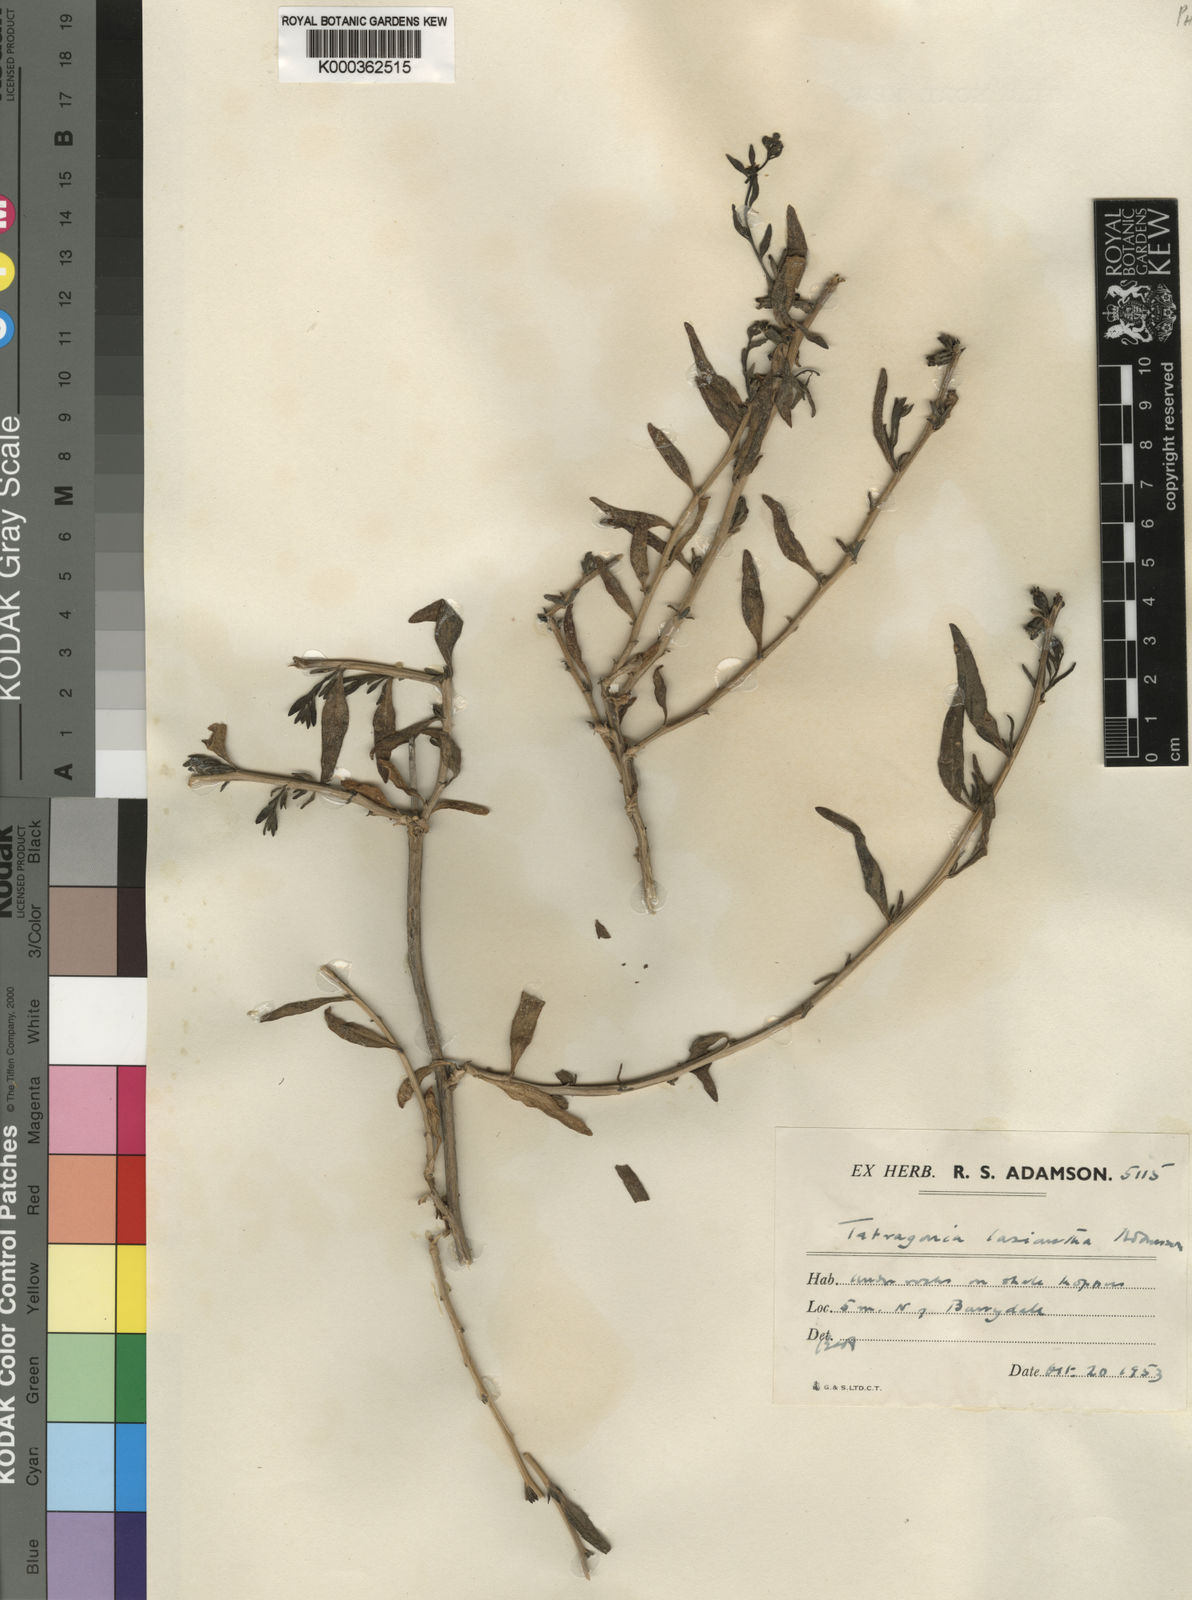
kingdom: Plantae
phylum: Tracheophyta
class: Magnoliopsida
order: Caryophyllales
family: Aizoaceae
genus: Tetragonia
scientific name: Tetragonia lasiantha
